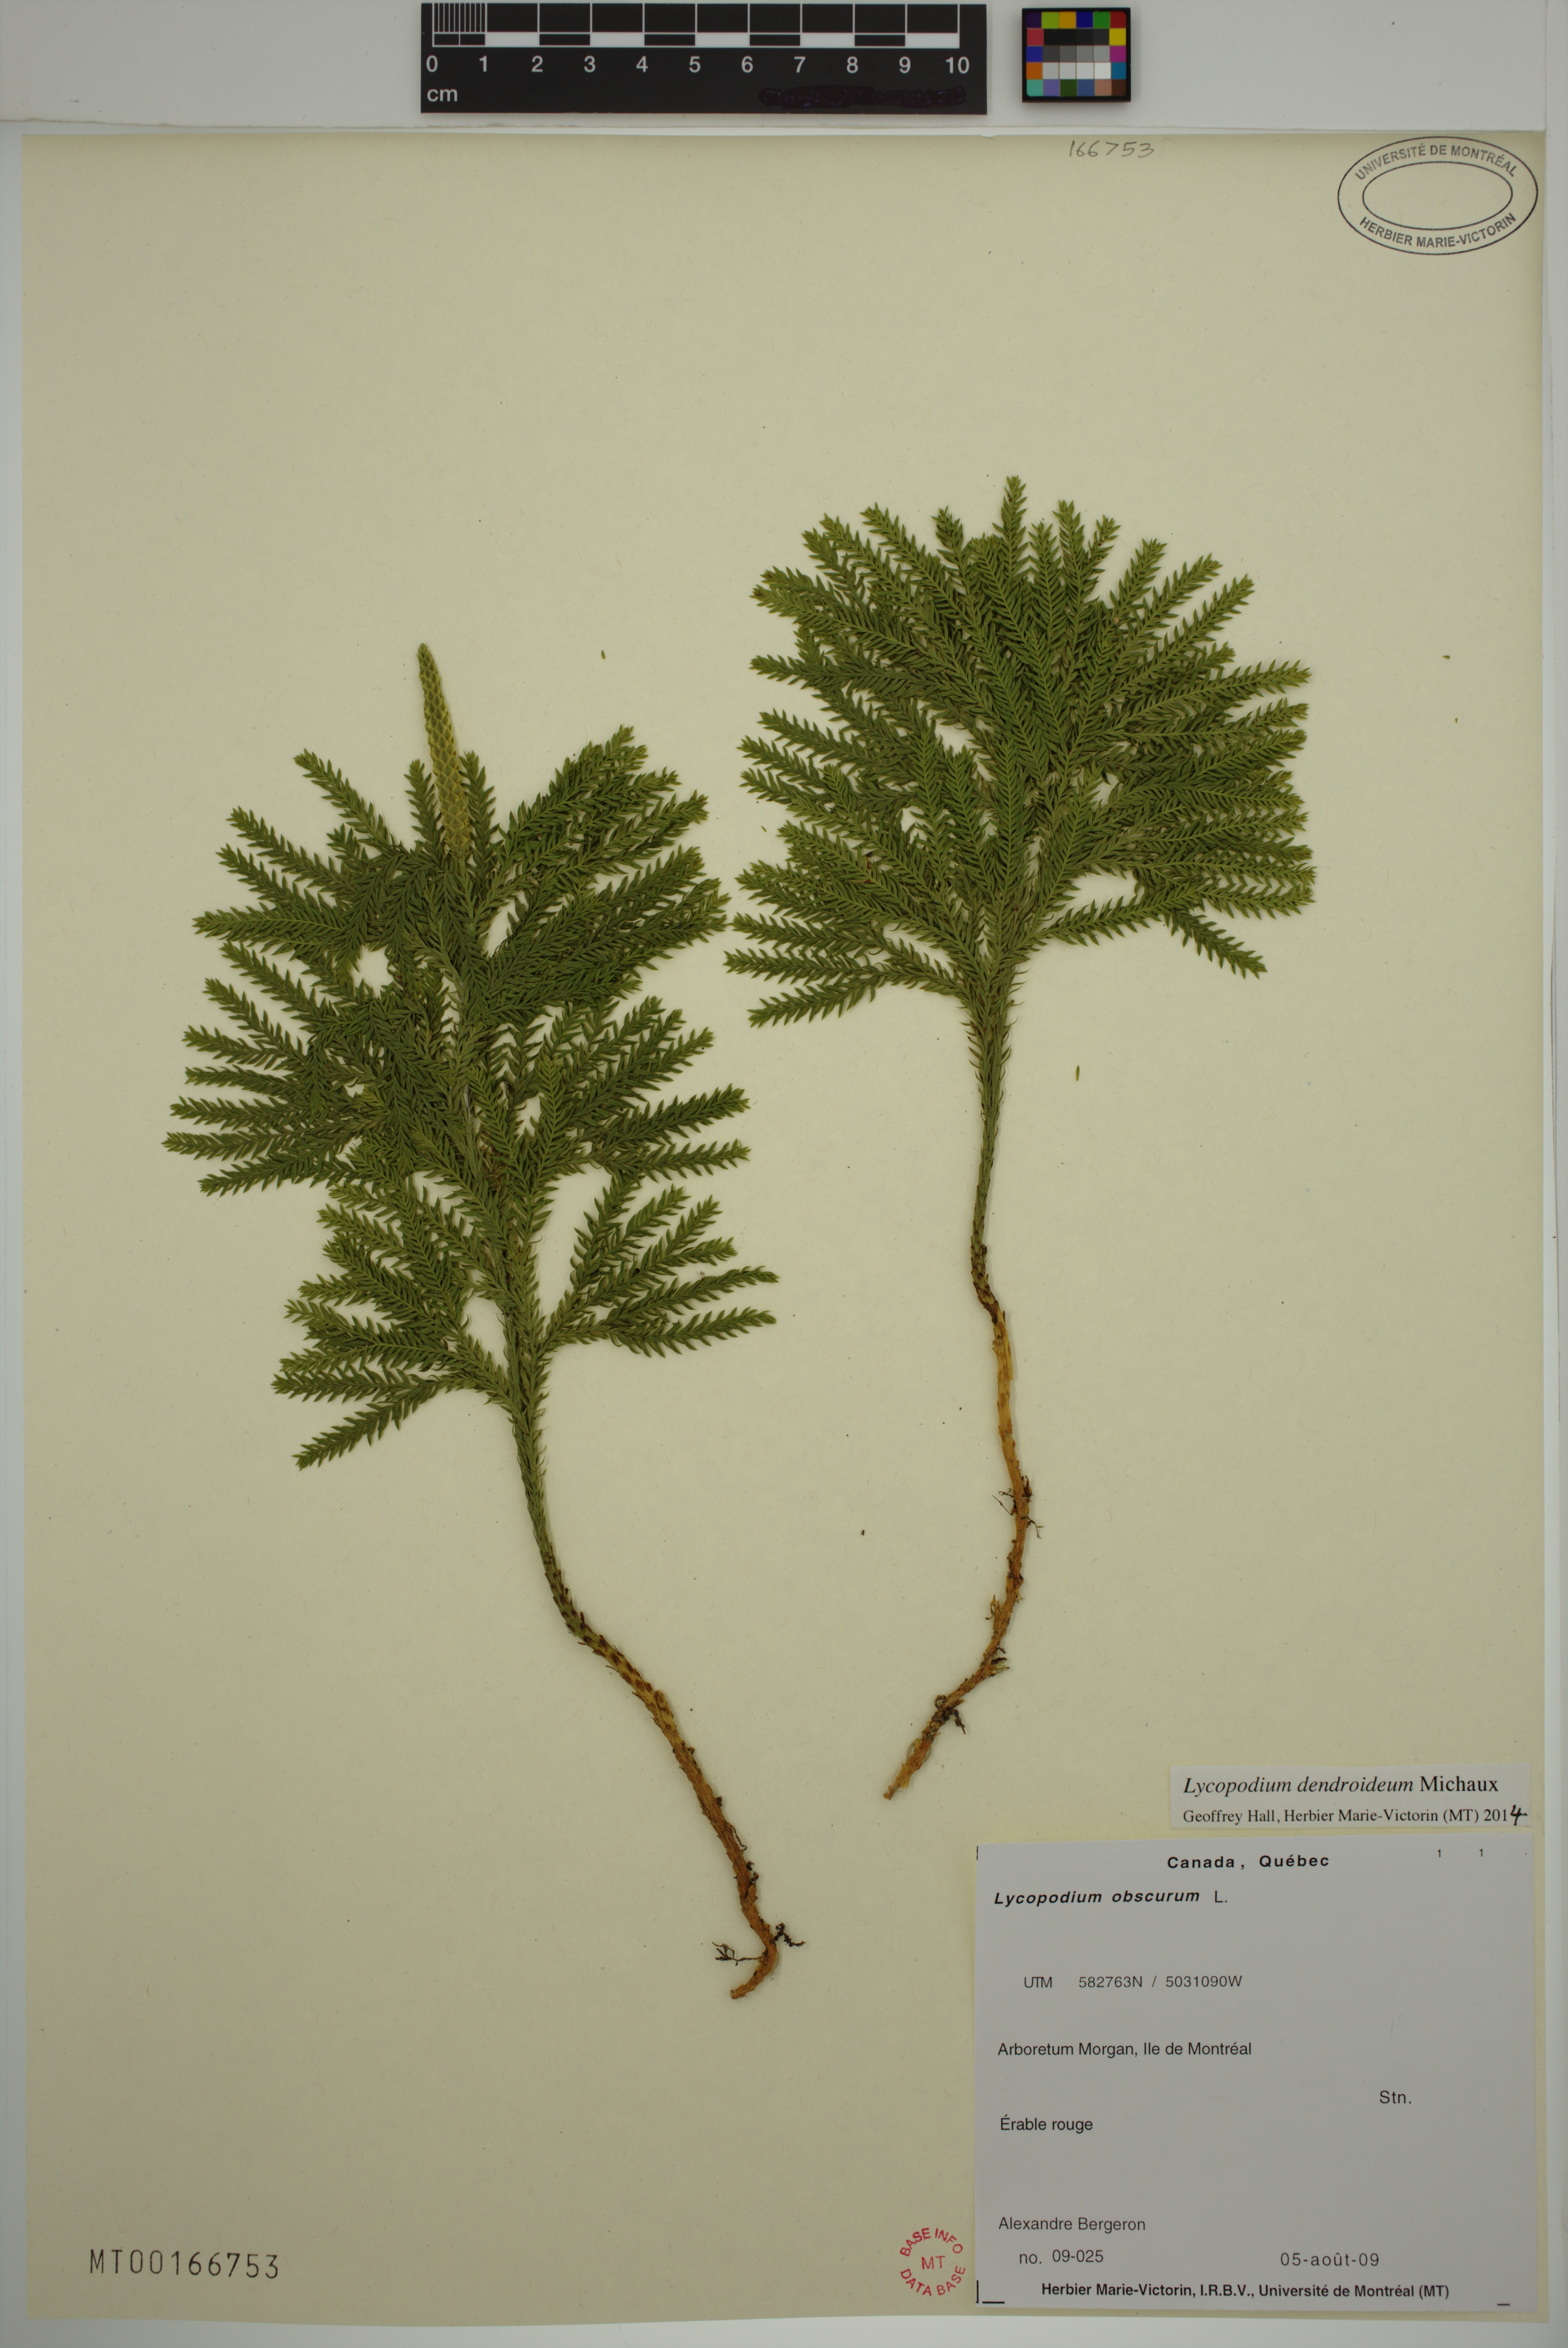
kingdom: Plantae
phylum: Tracheophyta
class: Lycopodiopsida
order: Lycopodiales
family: Lycopodiaceae
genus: Dendrolycopodium
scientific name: Dendrolycopodium dendroideum
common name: Northern tree-clubmoss
